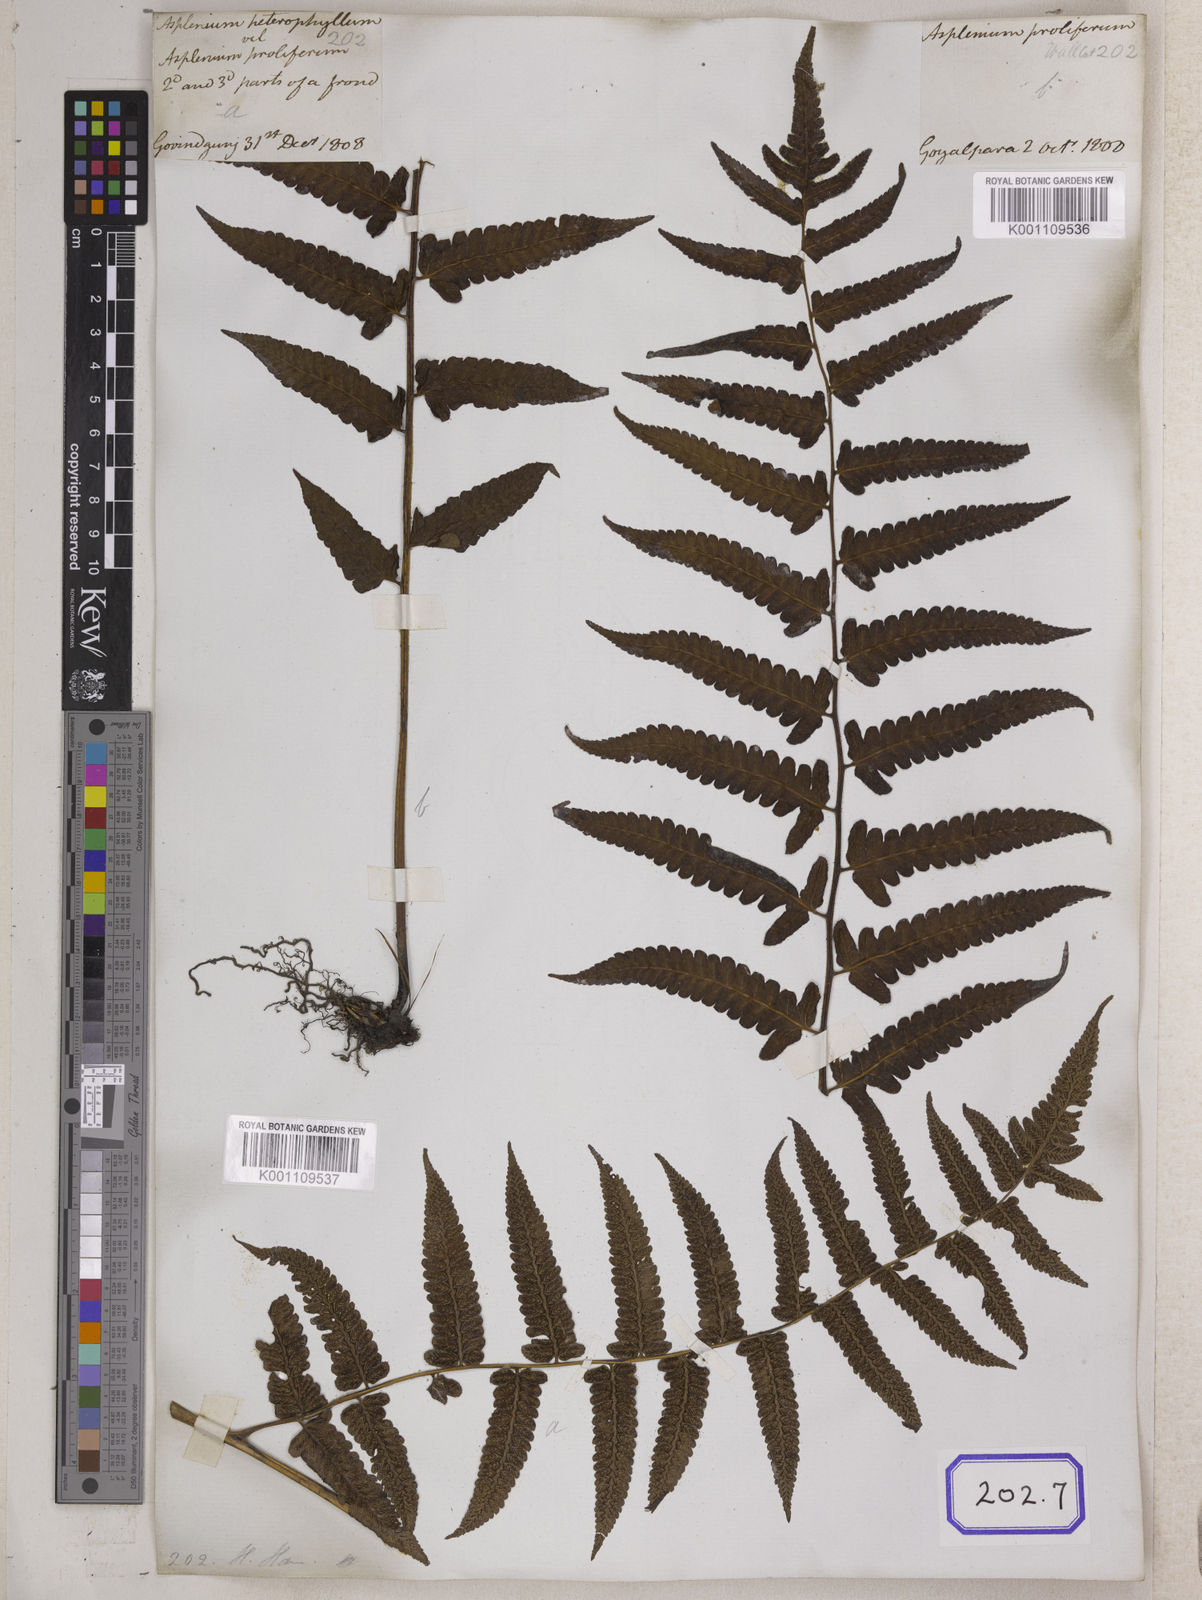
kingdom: Plantae
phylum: Tracheophyta
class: Polypodiopsida
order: Polypodiales
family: Aspleniaceae
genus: Asplenium
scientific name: Asplenium
